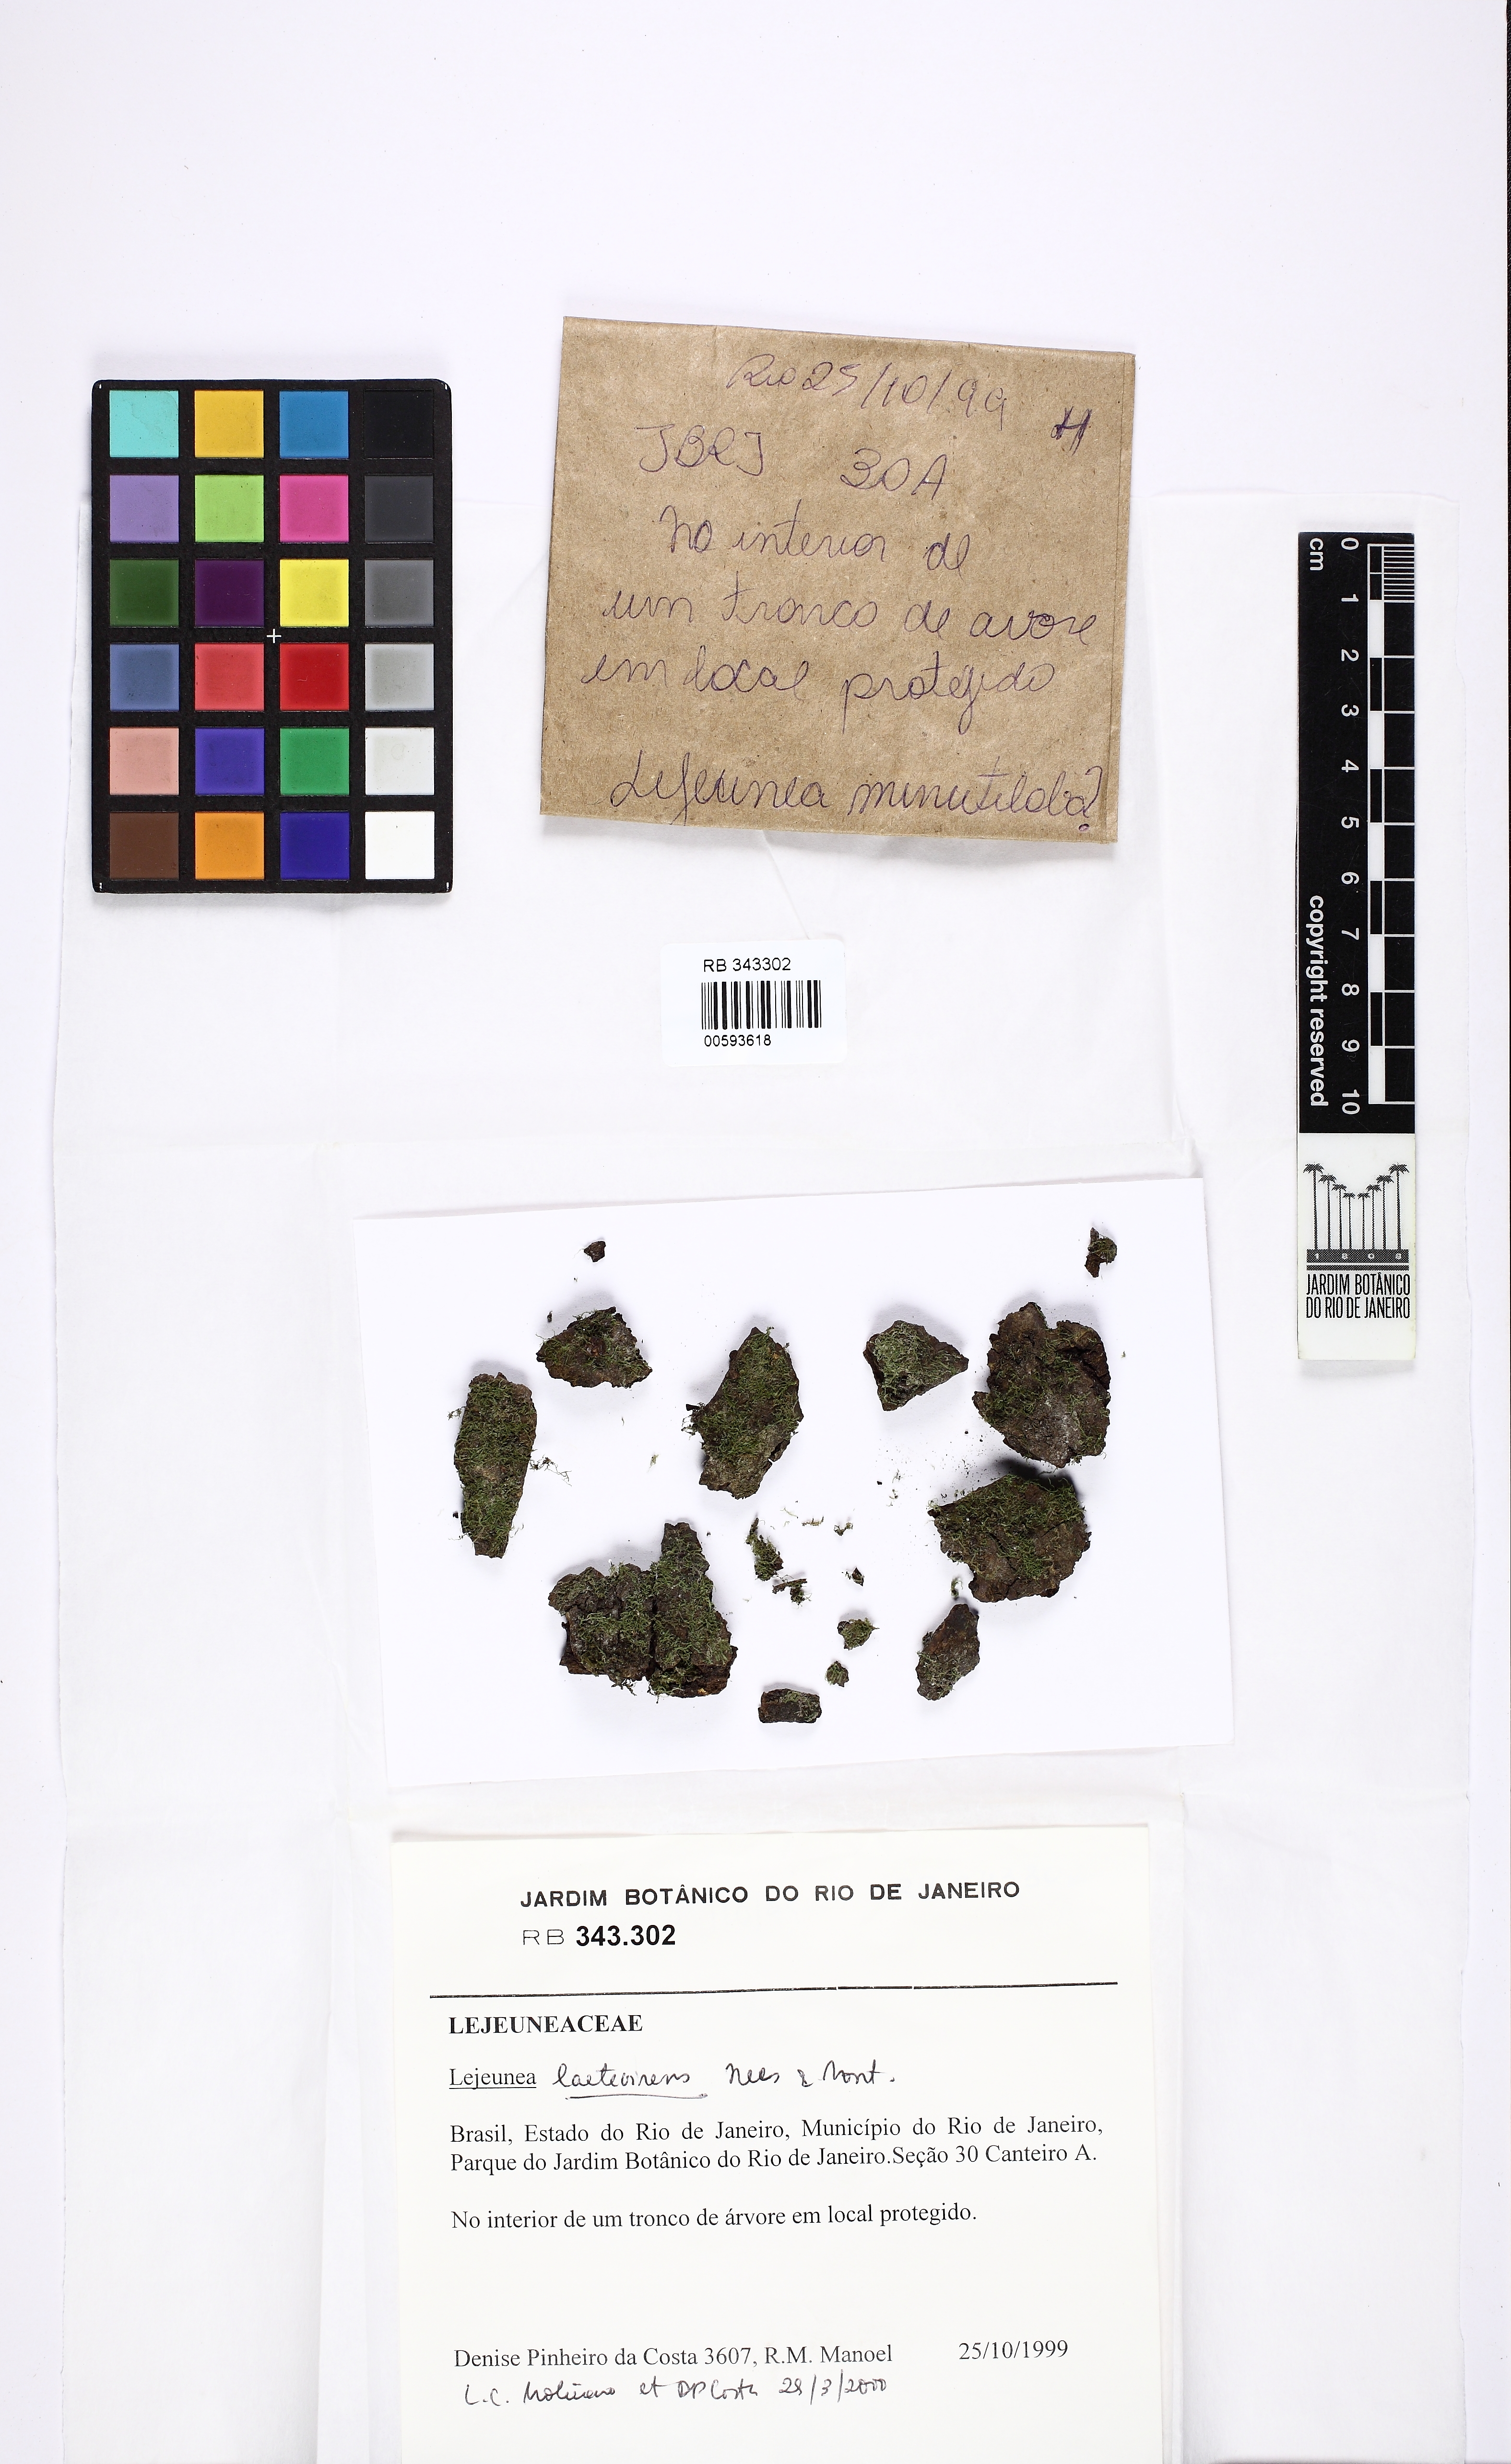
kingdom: Plantae
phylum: Marchantiophyta
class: Jungermanniopsida
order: Porellales
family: Lejeuneaceae
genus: Lejeunea
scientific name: Lejeunea laetevirens
